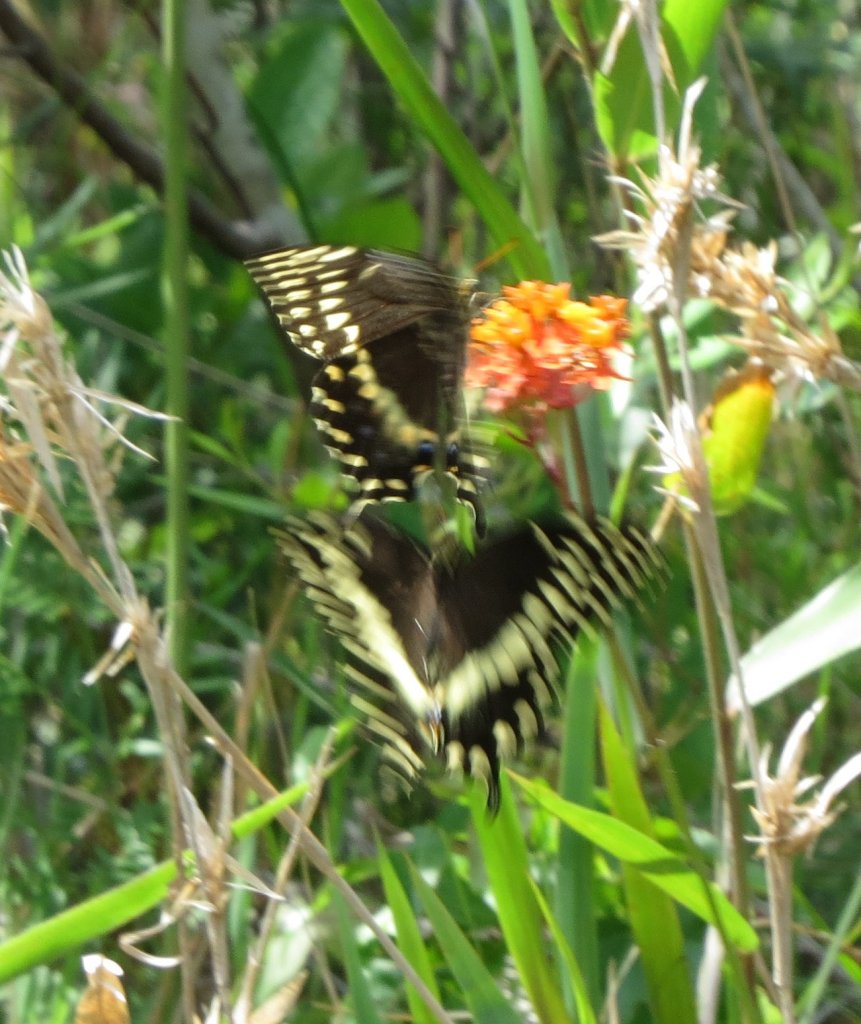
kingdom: Animalia
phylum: Arthropoda
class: Insecta
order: Lepidoptera
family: Papilionidae
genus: Pterourus
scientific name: Pterourus palamedes
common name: Palamedes Swallowtail
